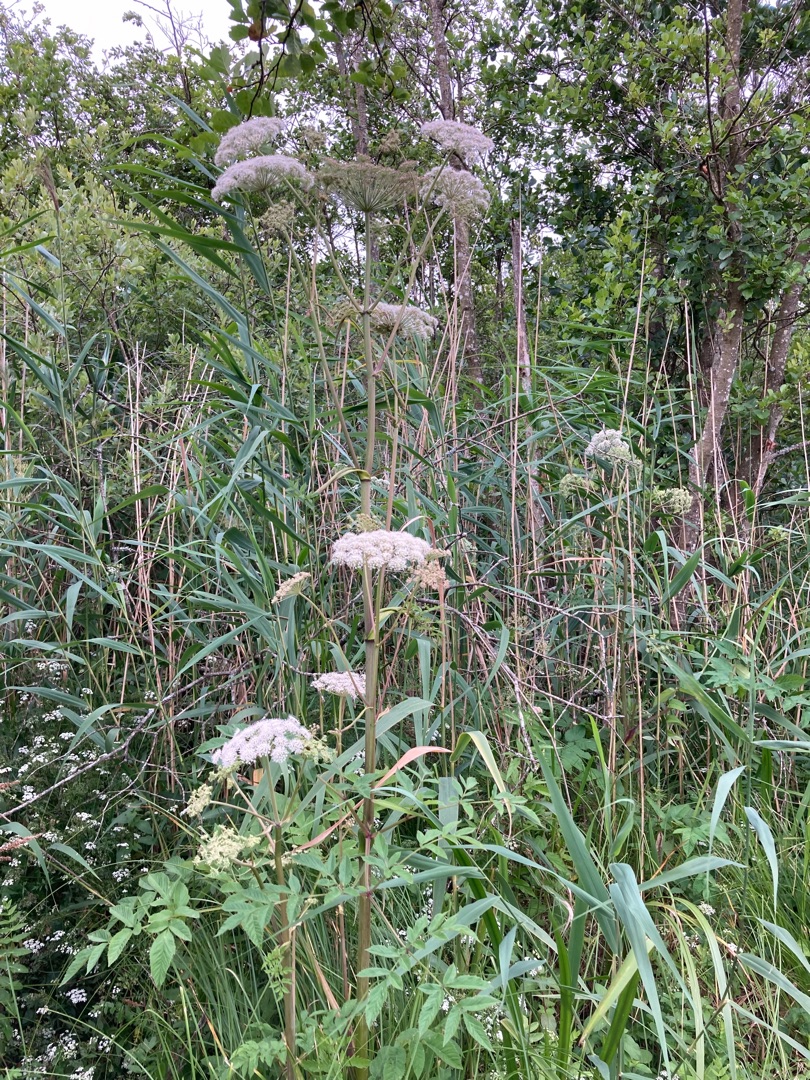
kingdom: Plantae
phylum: Tracheophyta
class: Magnoliopsida
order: Apiales
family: Apiaceae
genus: Angelica
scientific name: Angelica sylvestris
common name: Angelik
